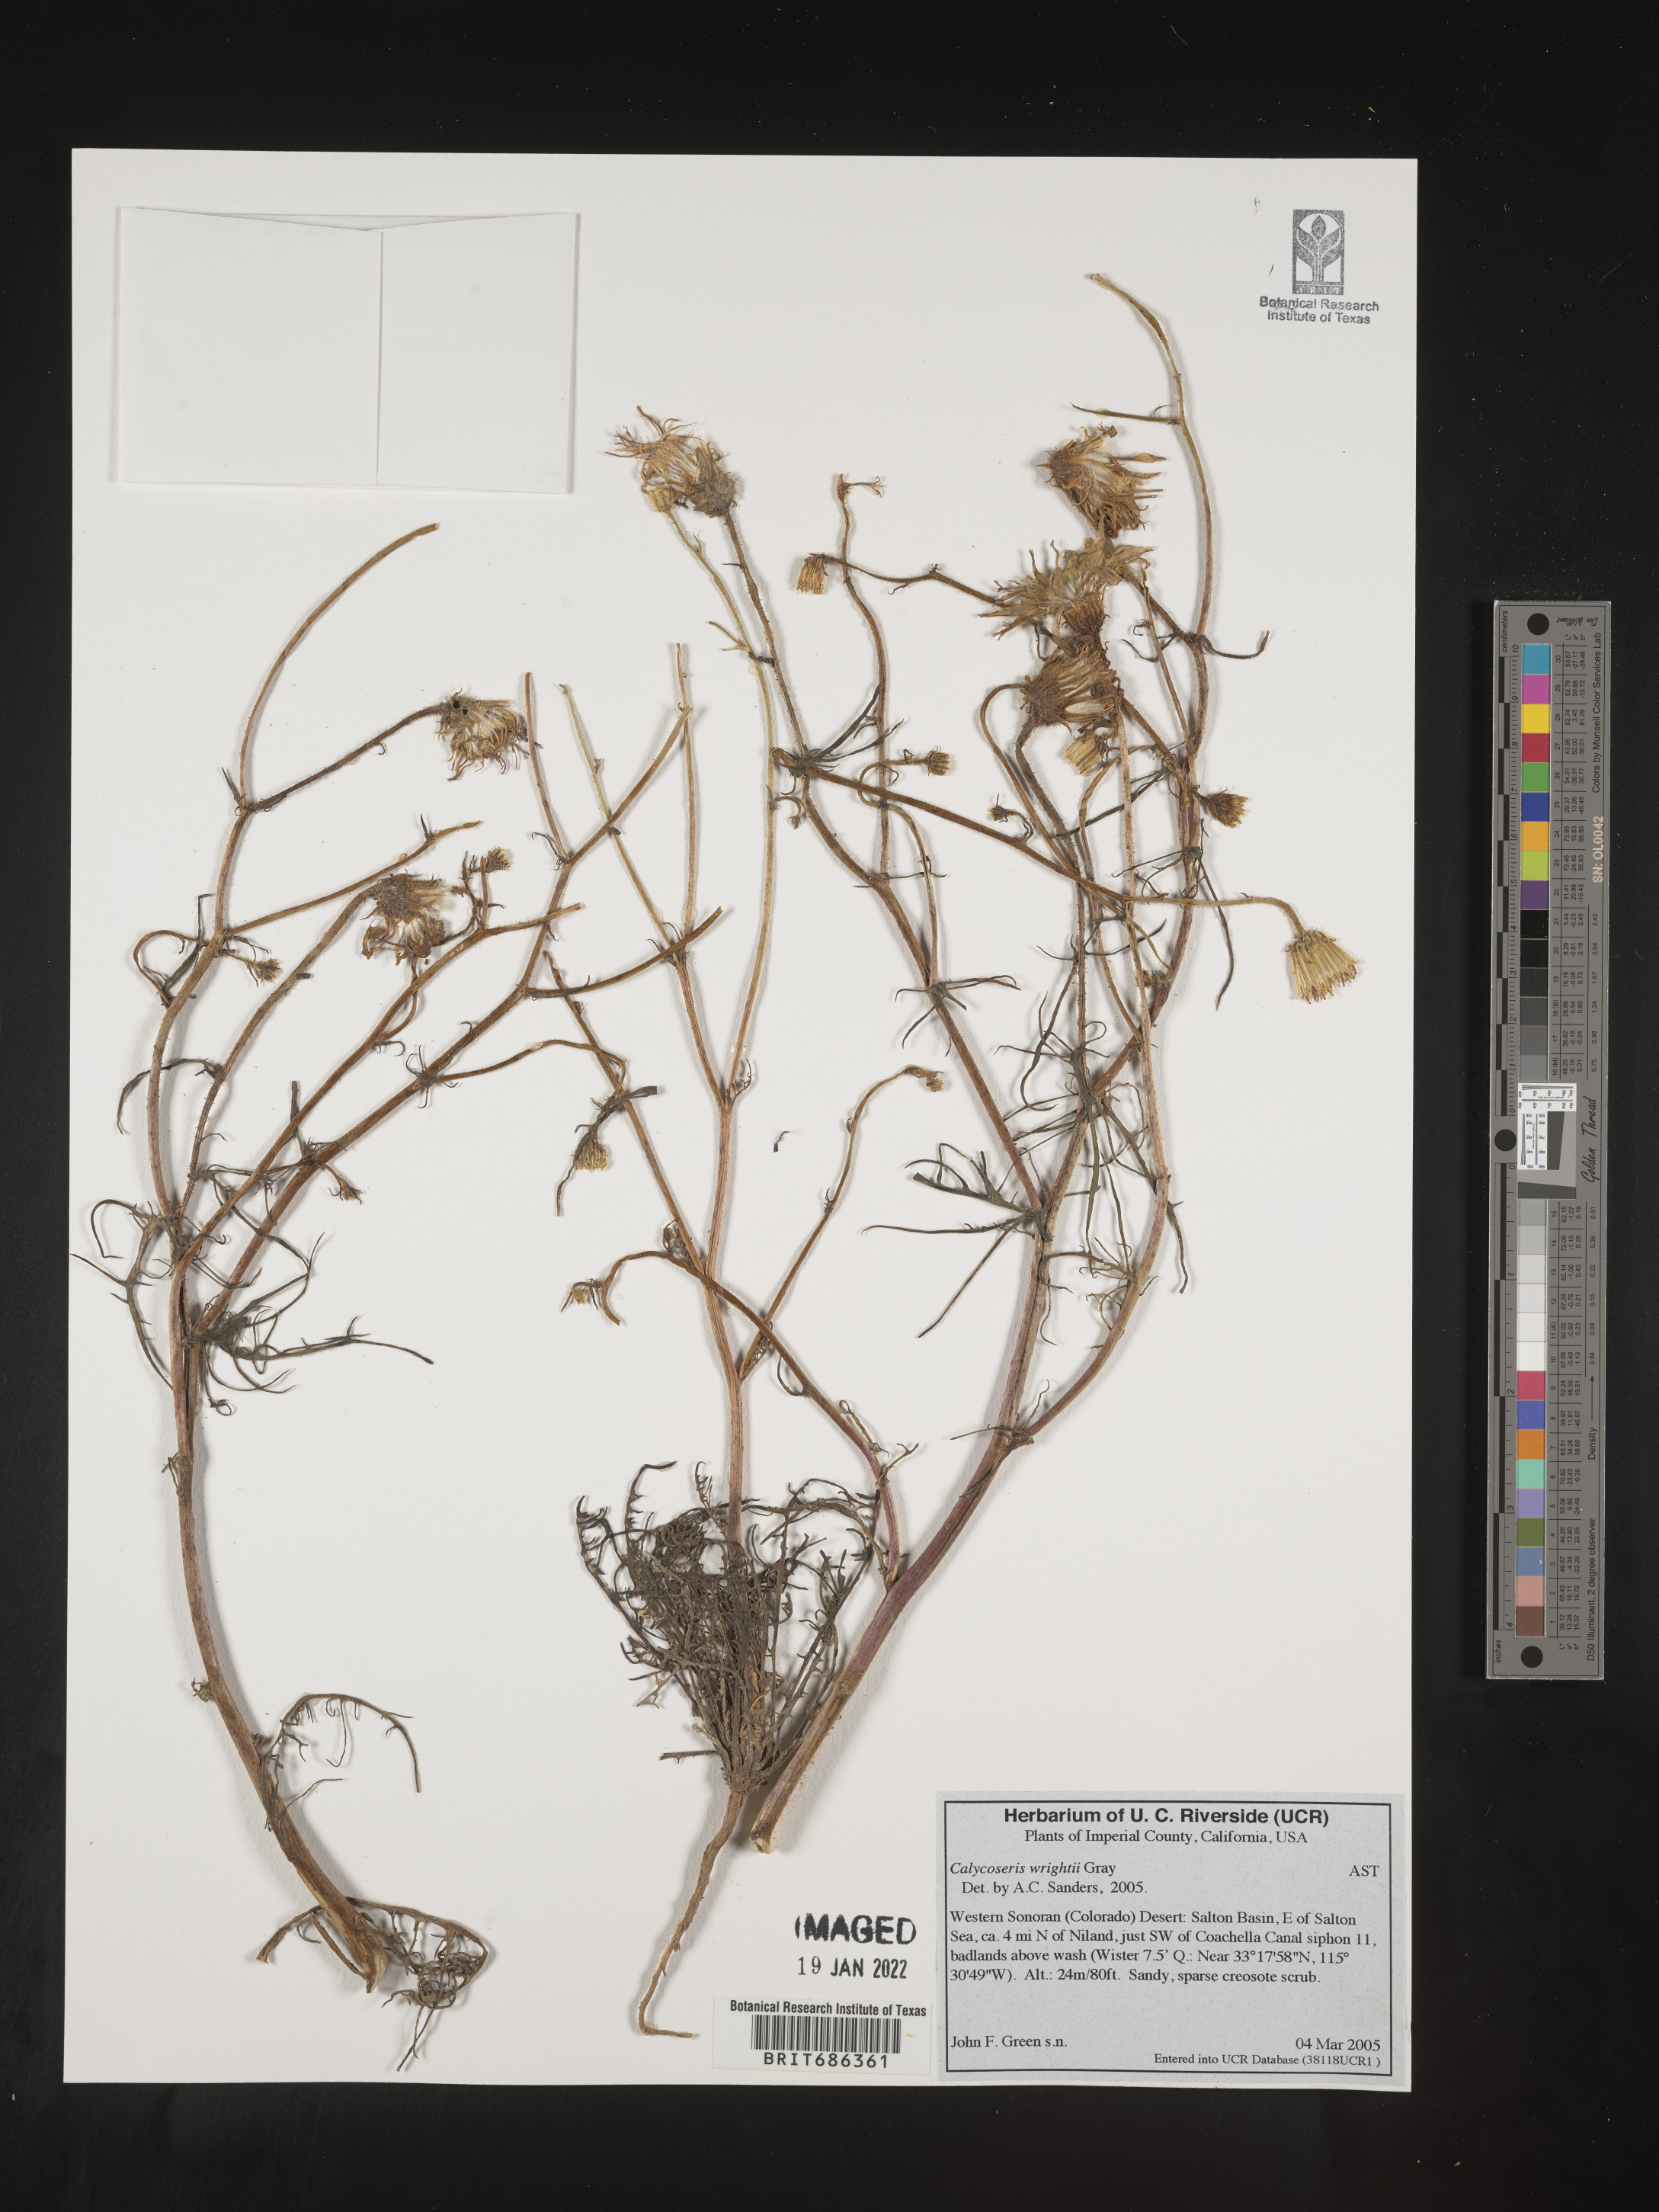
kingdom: Plantae
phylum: Tracheophyta
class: Magnoliopsida
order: Asterales
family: Asteraceae
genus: Calycoseris
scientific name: Calycoseris
